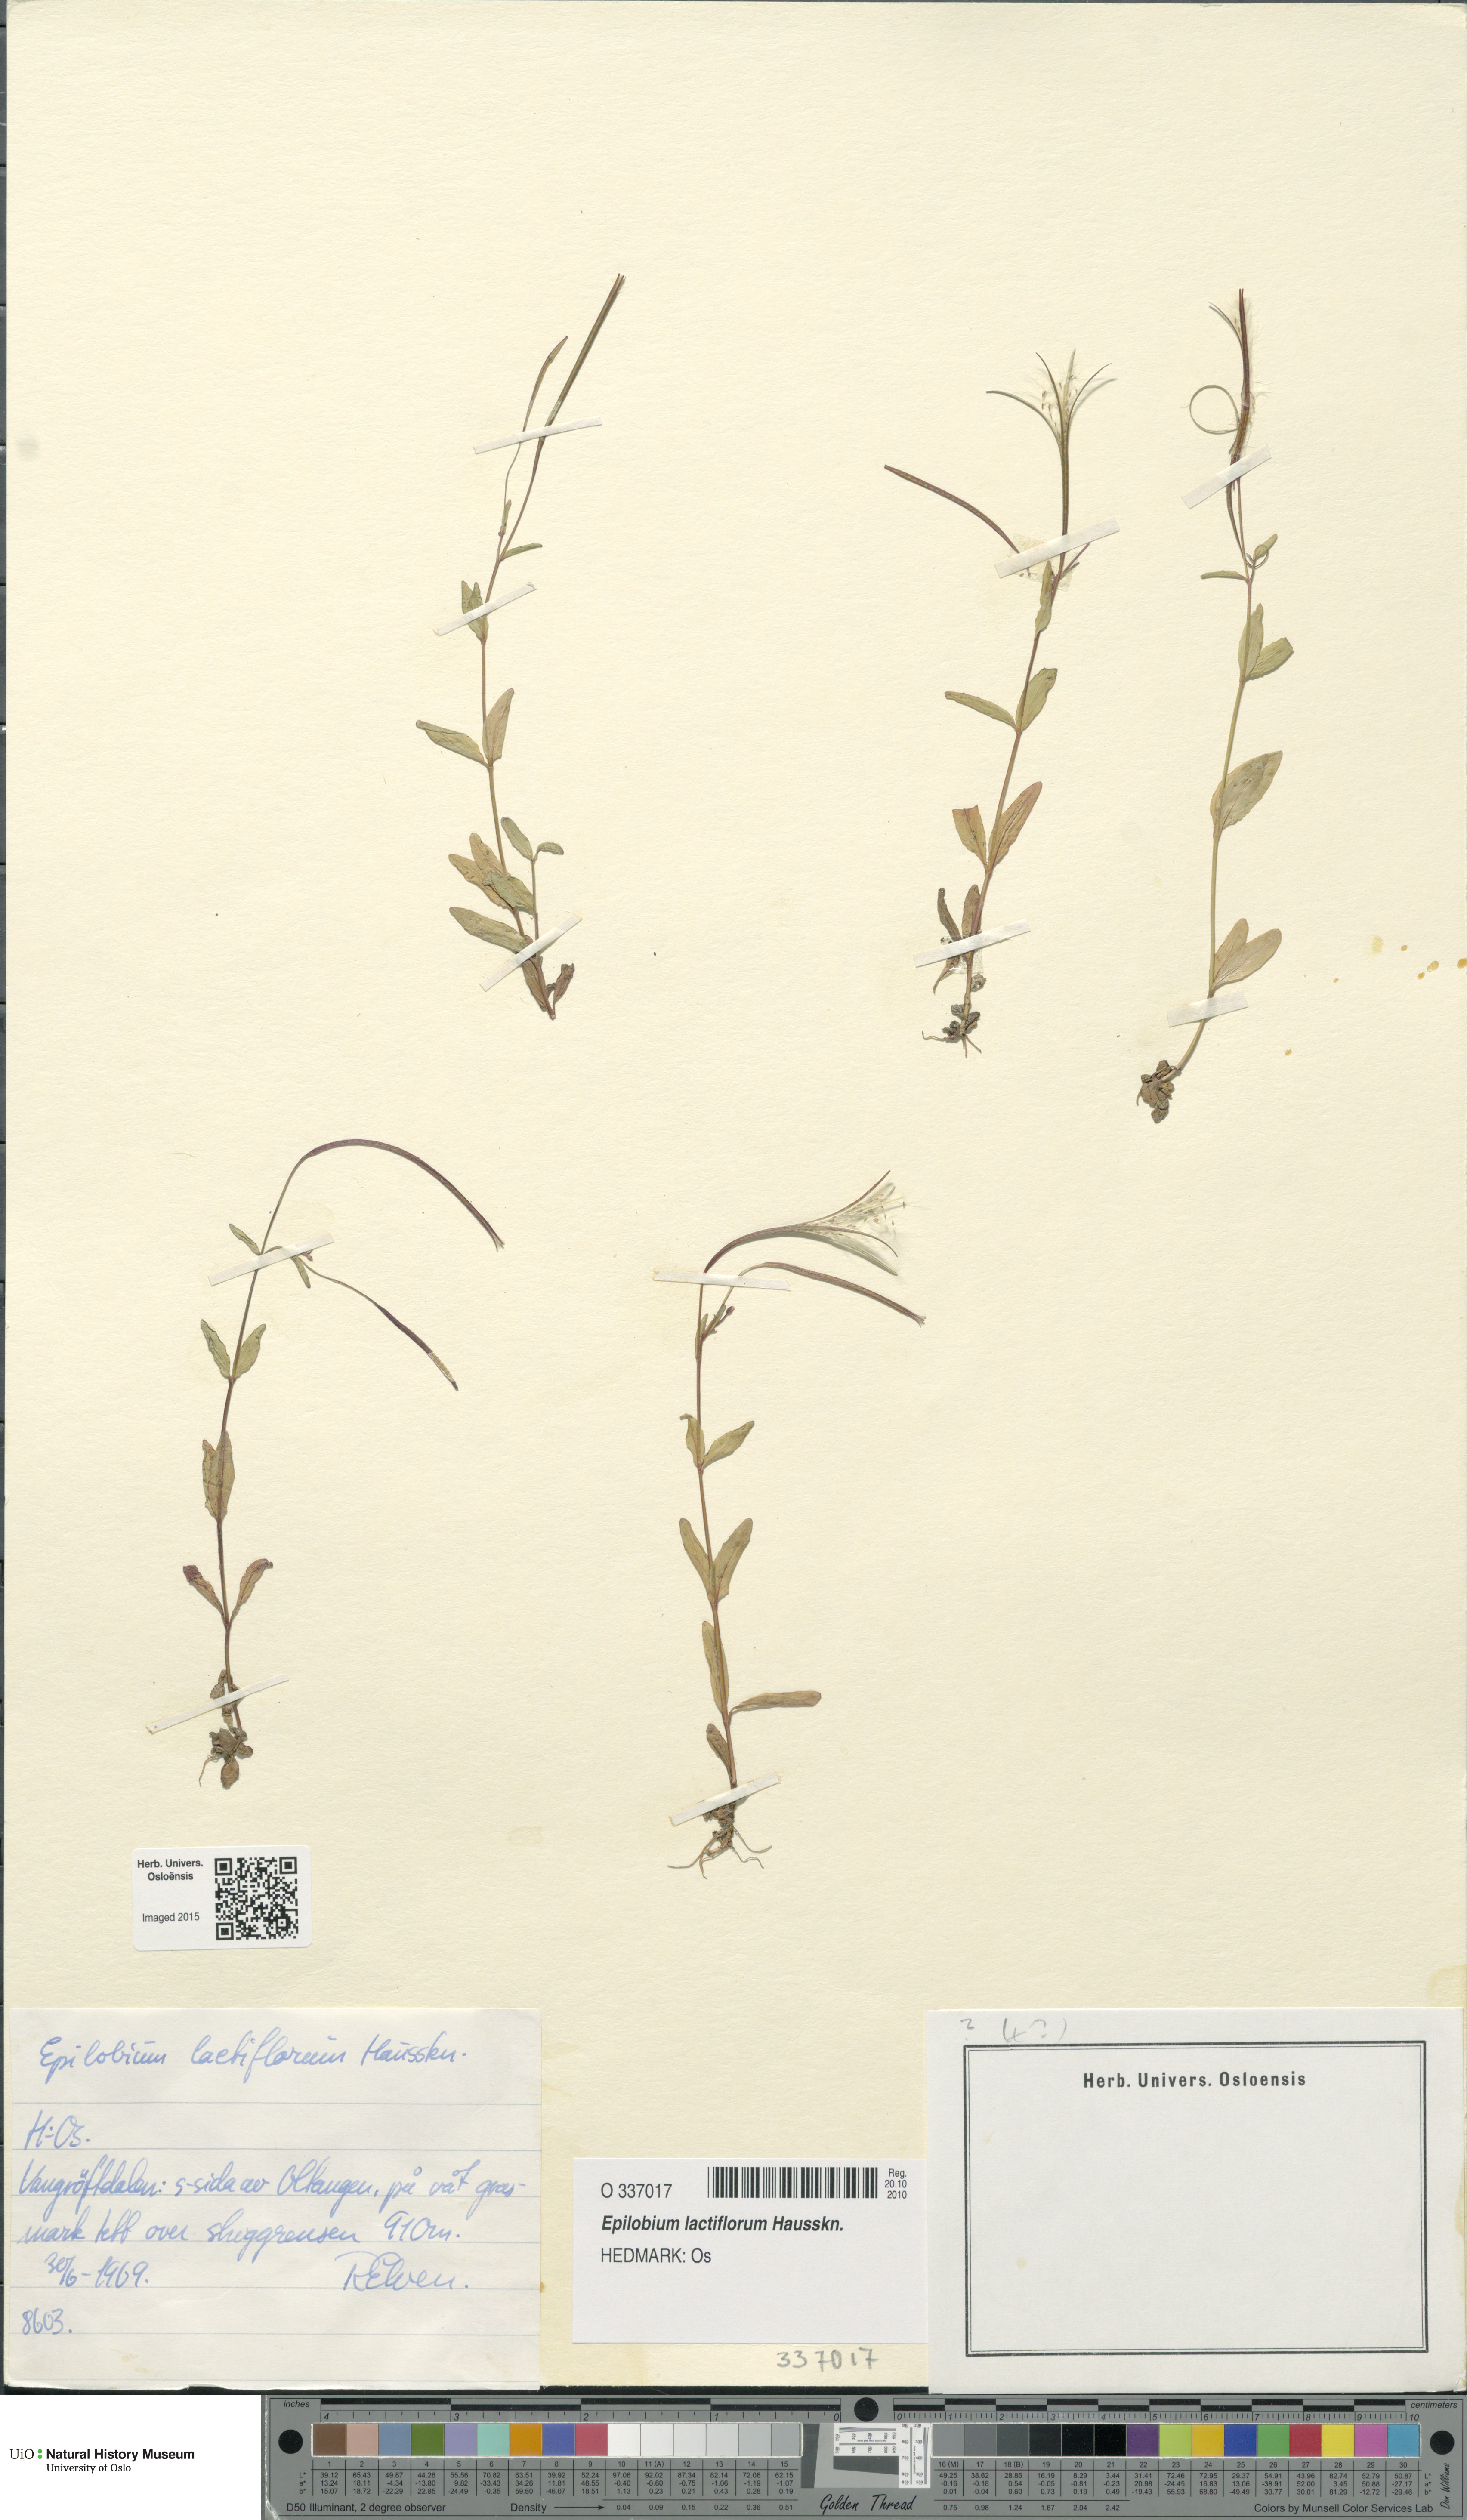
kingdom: Plantae
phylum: Tracheophyta
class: Magnoliopsida
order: Myrtales
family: Onagraceae
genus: Epilobium
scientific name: Epilobium lactiflorum
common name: Milkflower willowherb
